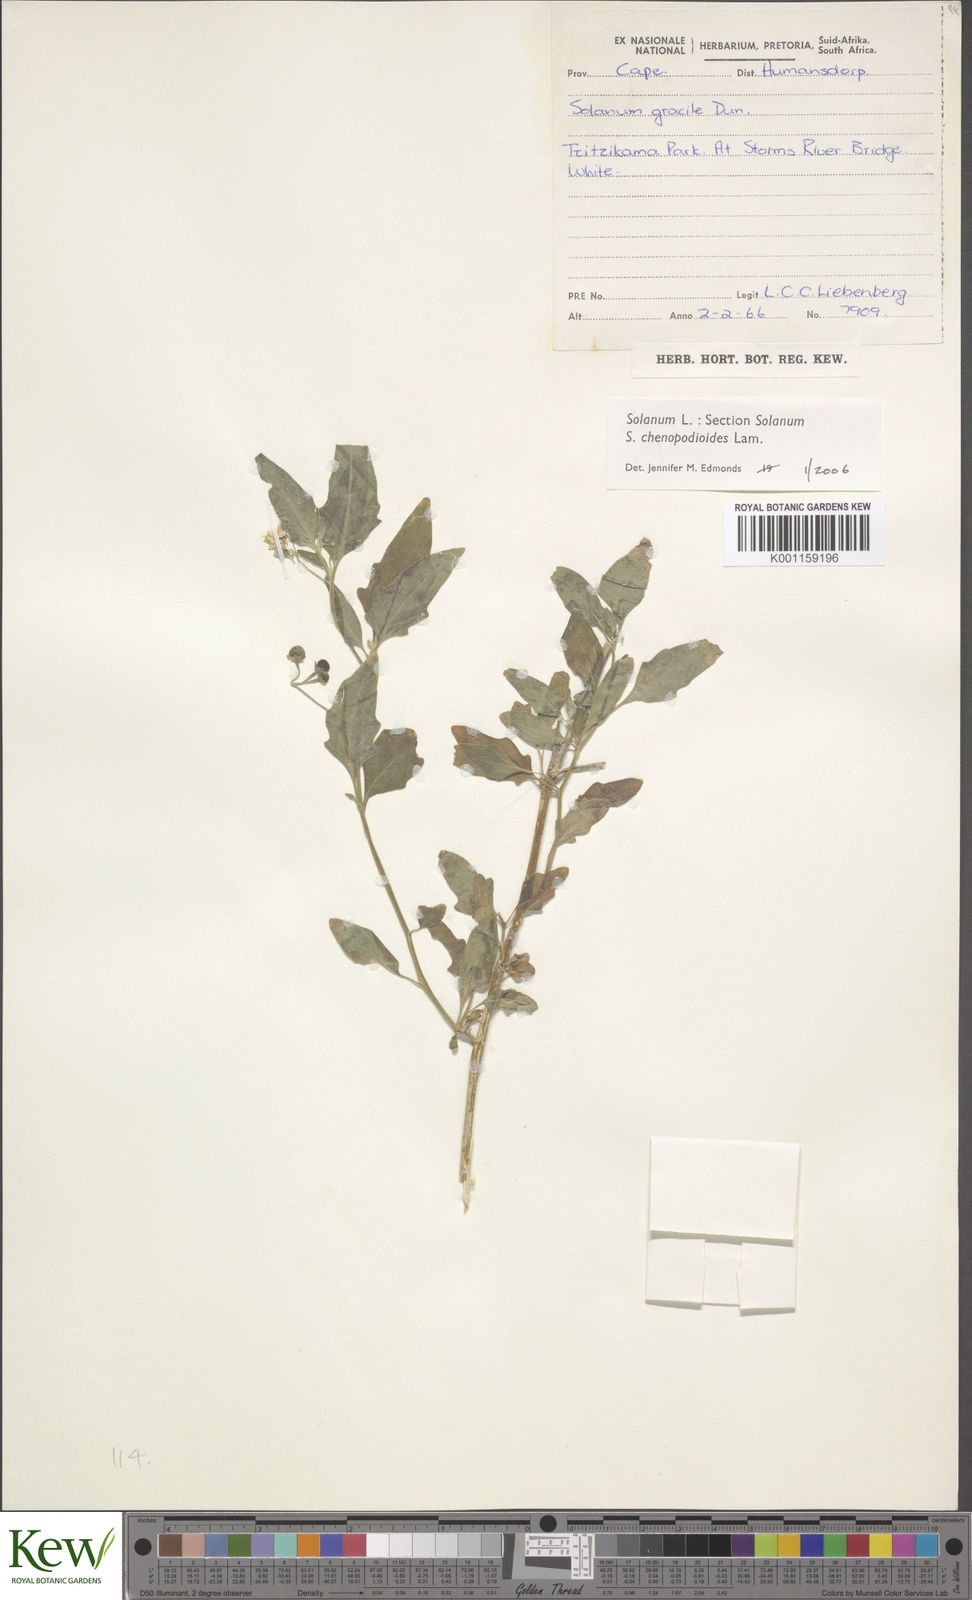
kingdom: Plantae
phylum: Tracheophyta
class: Magnoliopsida
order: Solanales
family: Solanaceae
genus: Solanum
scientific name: Solanum chenopodioides
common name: Tall nightshade
